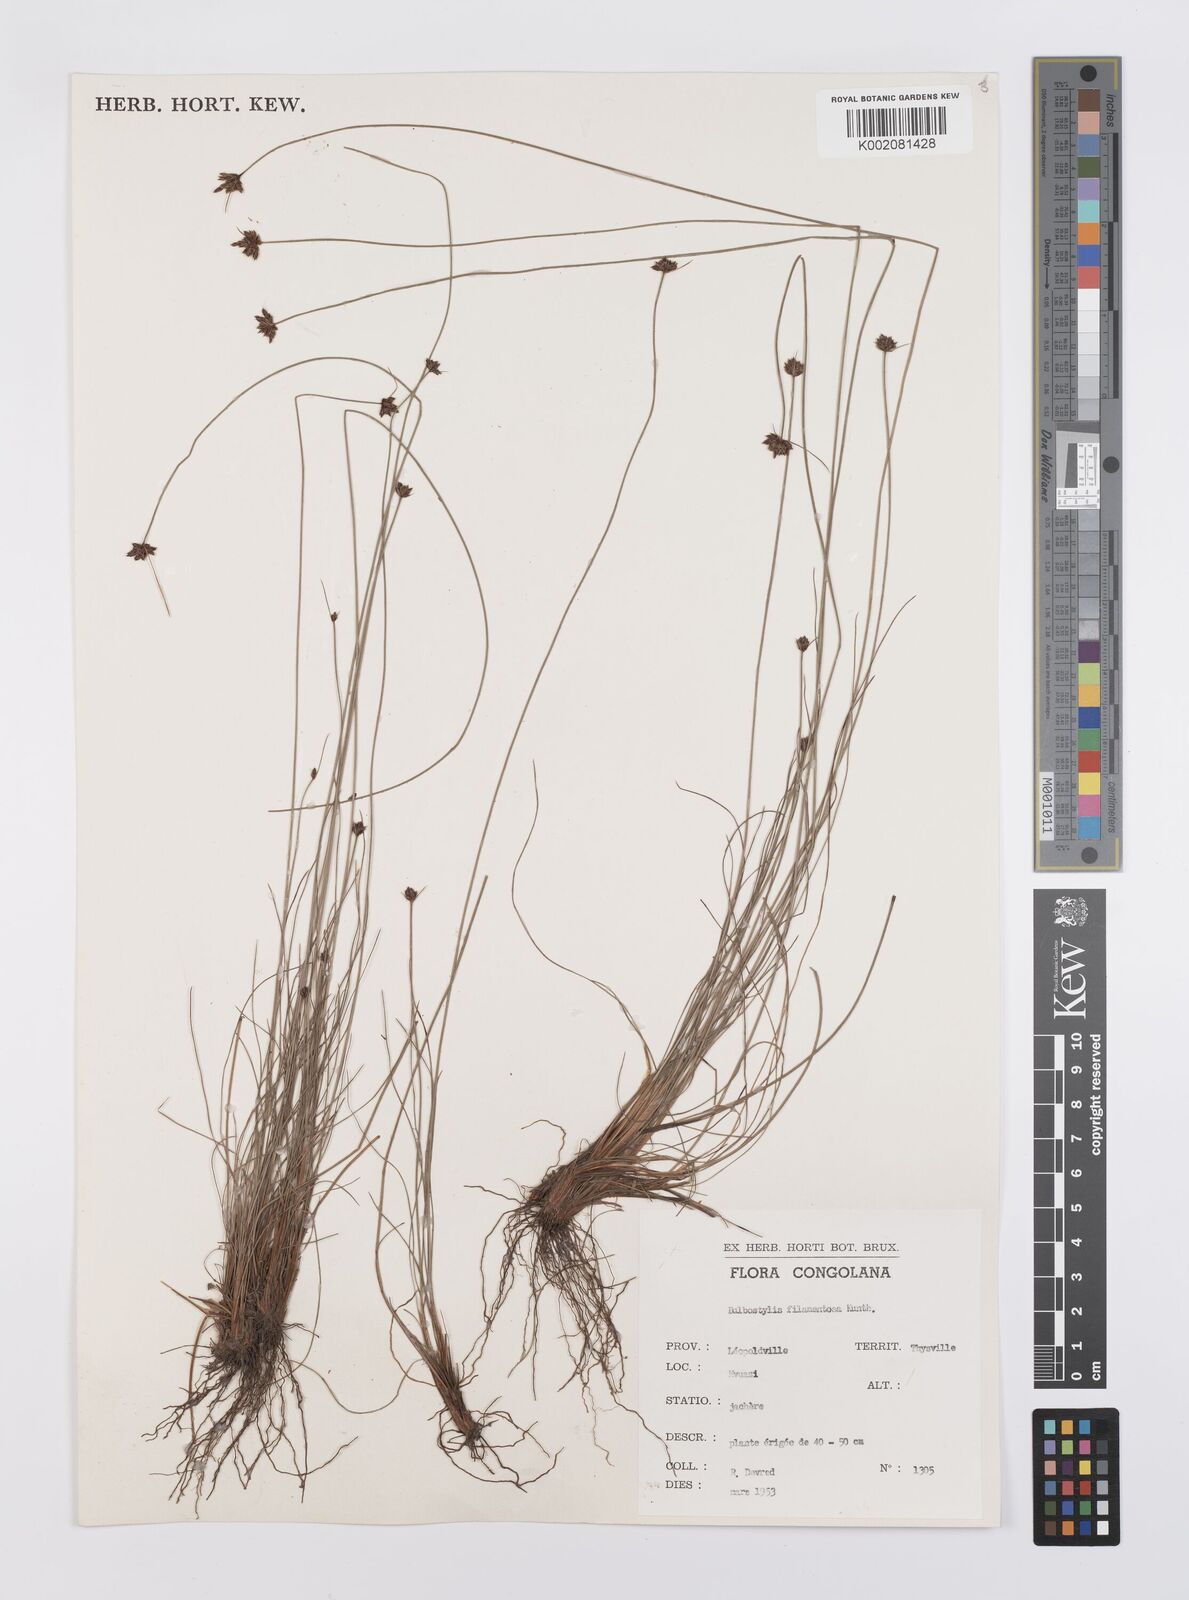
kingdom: Plantae
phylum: Tracheophyta
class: Liliopsida
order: Poales
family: Cyperaceae
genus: Bulbostylis
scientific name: Bulbostylis filamentosa
